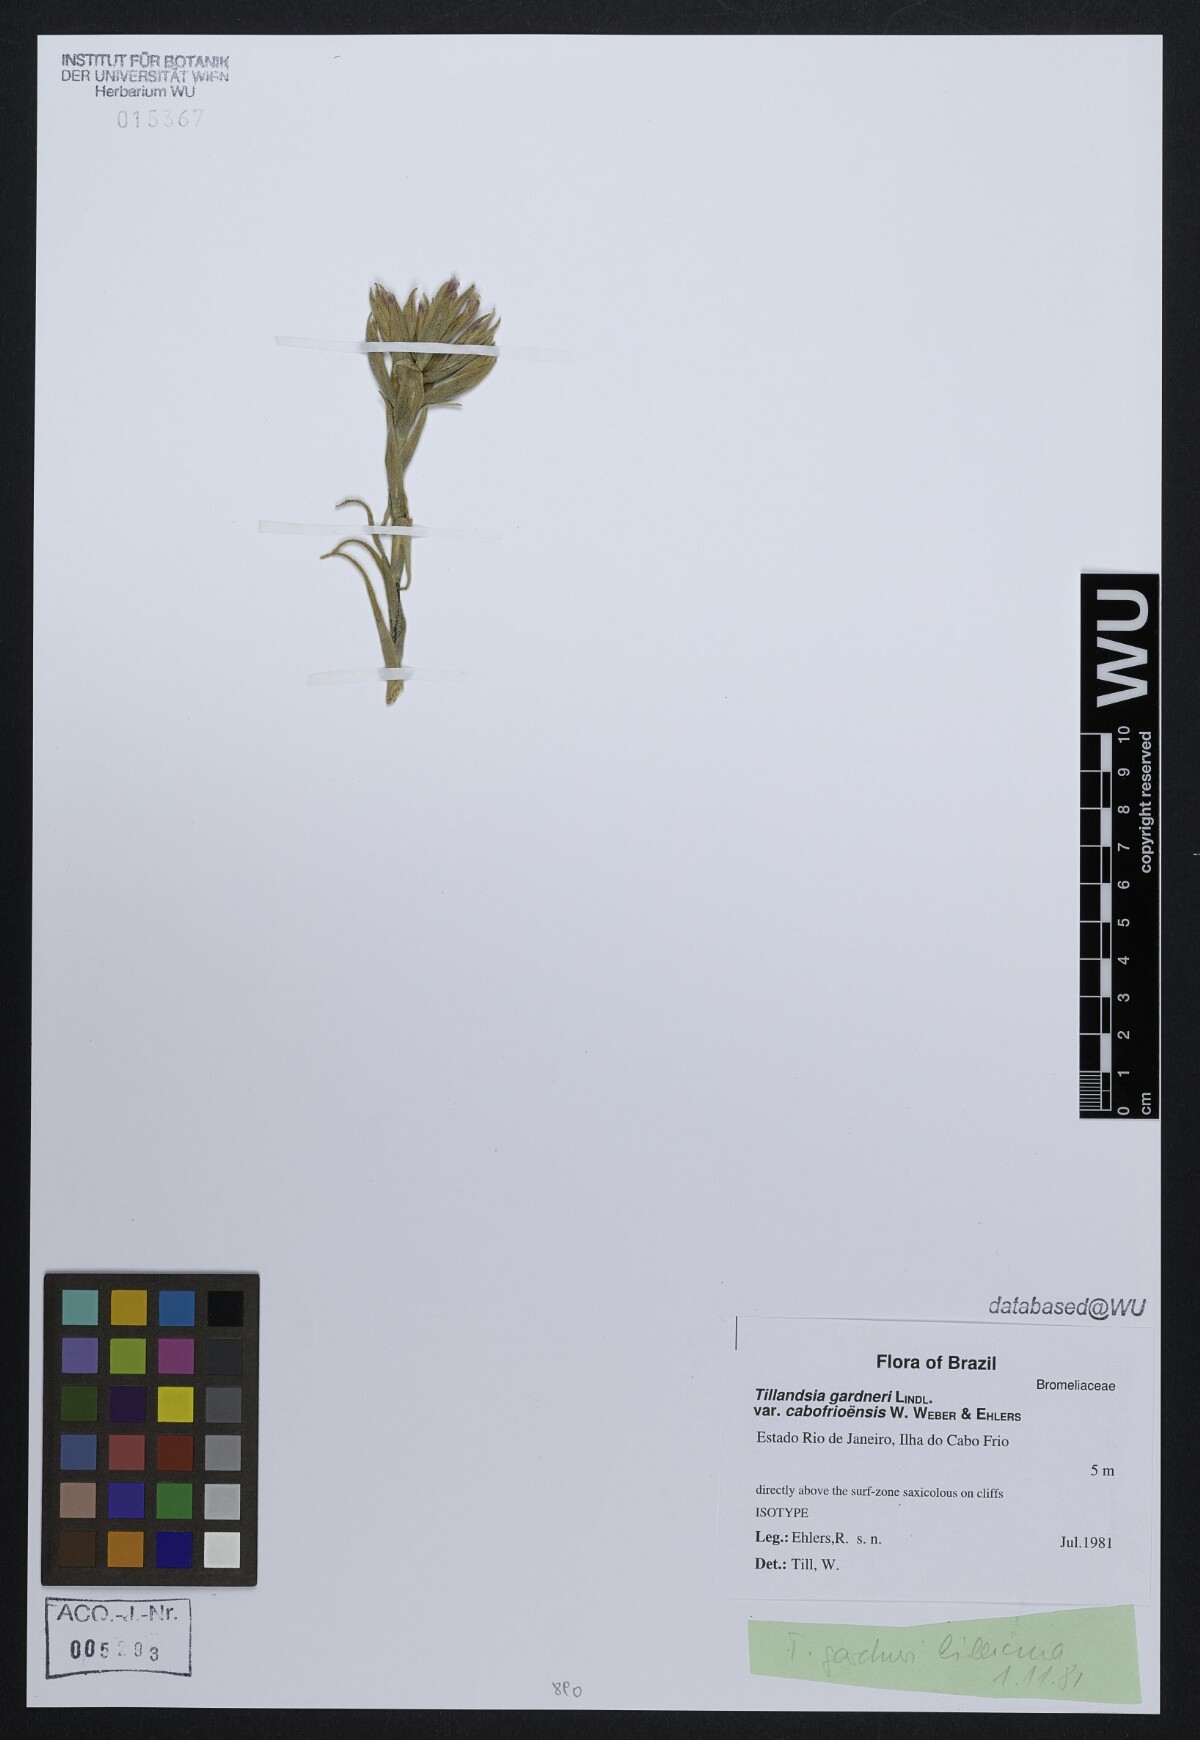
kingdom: Plantae
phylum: Tracheophyta
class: Liliopsida
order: Poales
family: Bromeliaceae
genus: Tillandsia
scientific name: Tillandsia gardneri
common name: Airplant
